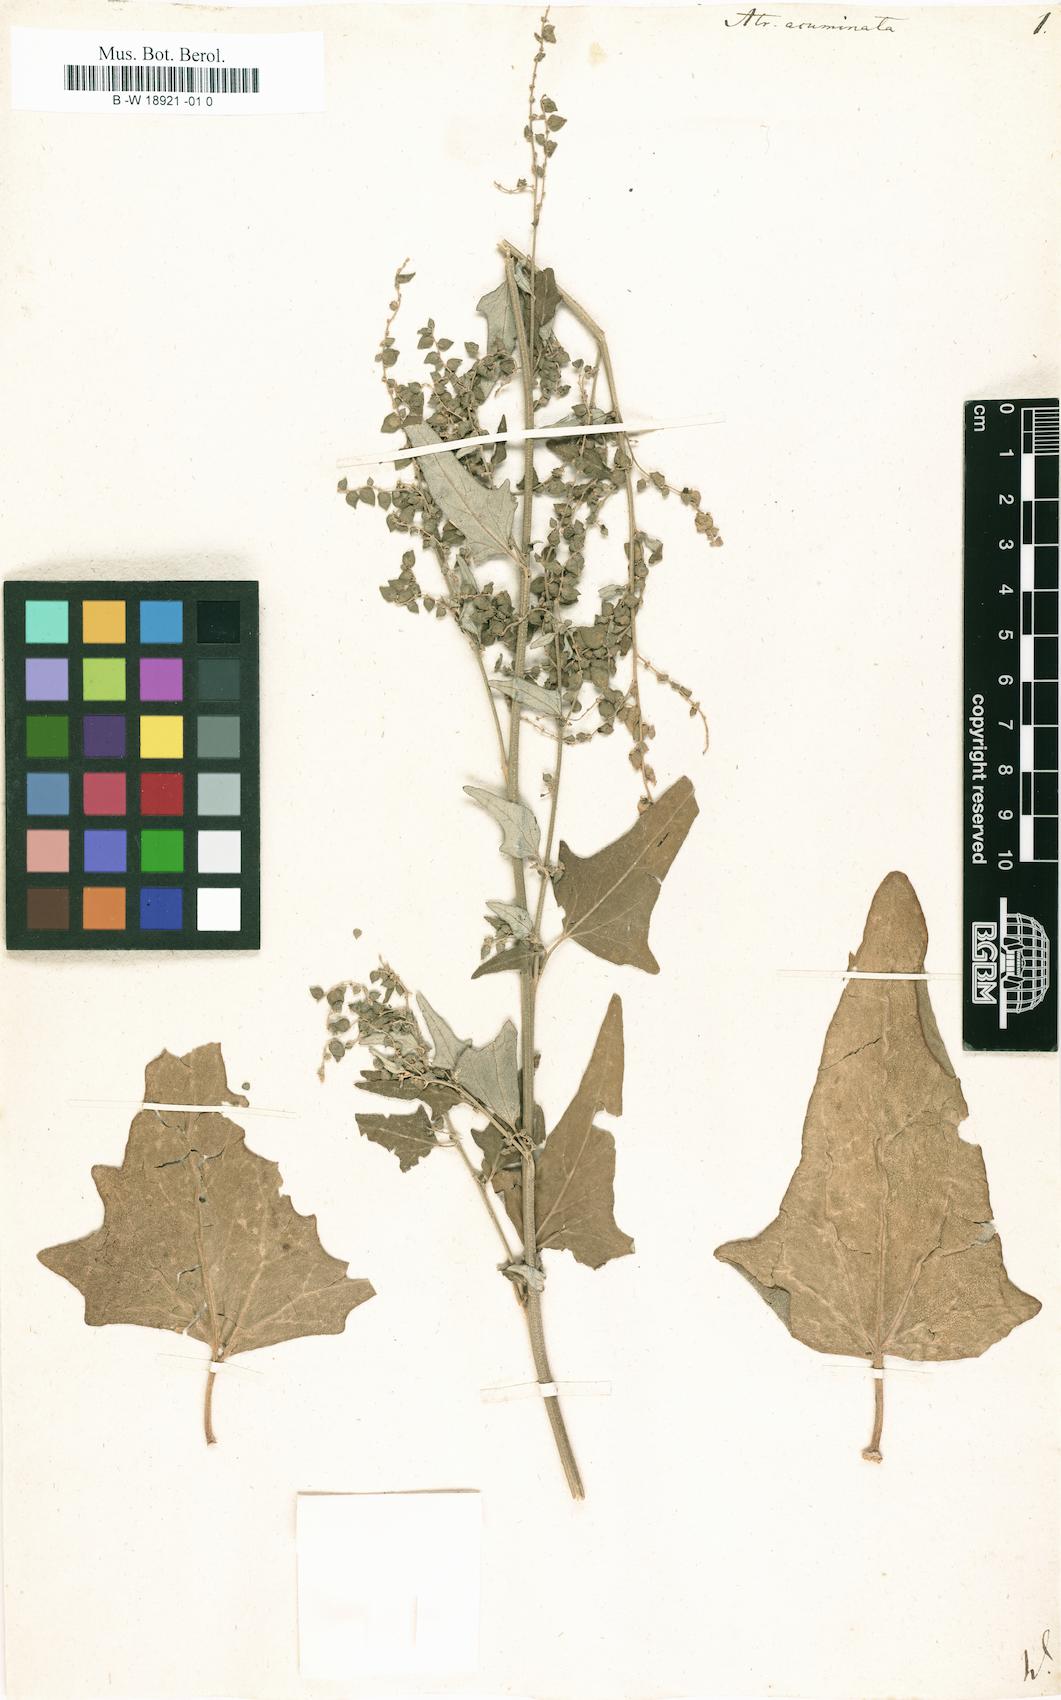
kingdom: Plantae
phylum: Tracheophyta
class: Magnoliopsida
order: Caryophyllales
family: Amaranthaceae
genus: Atriplex
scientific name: Atriplex sagittata
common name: Purple orache
